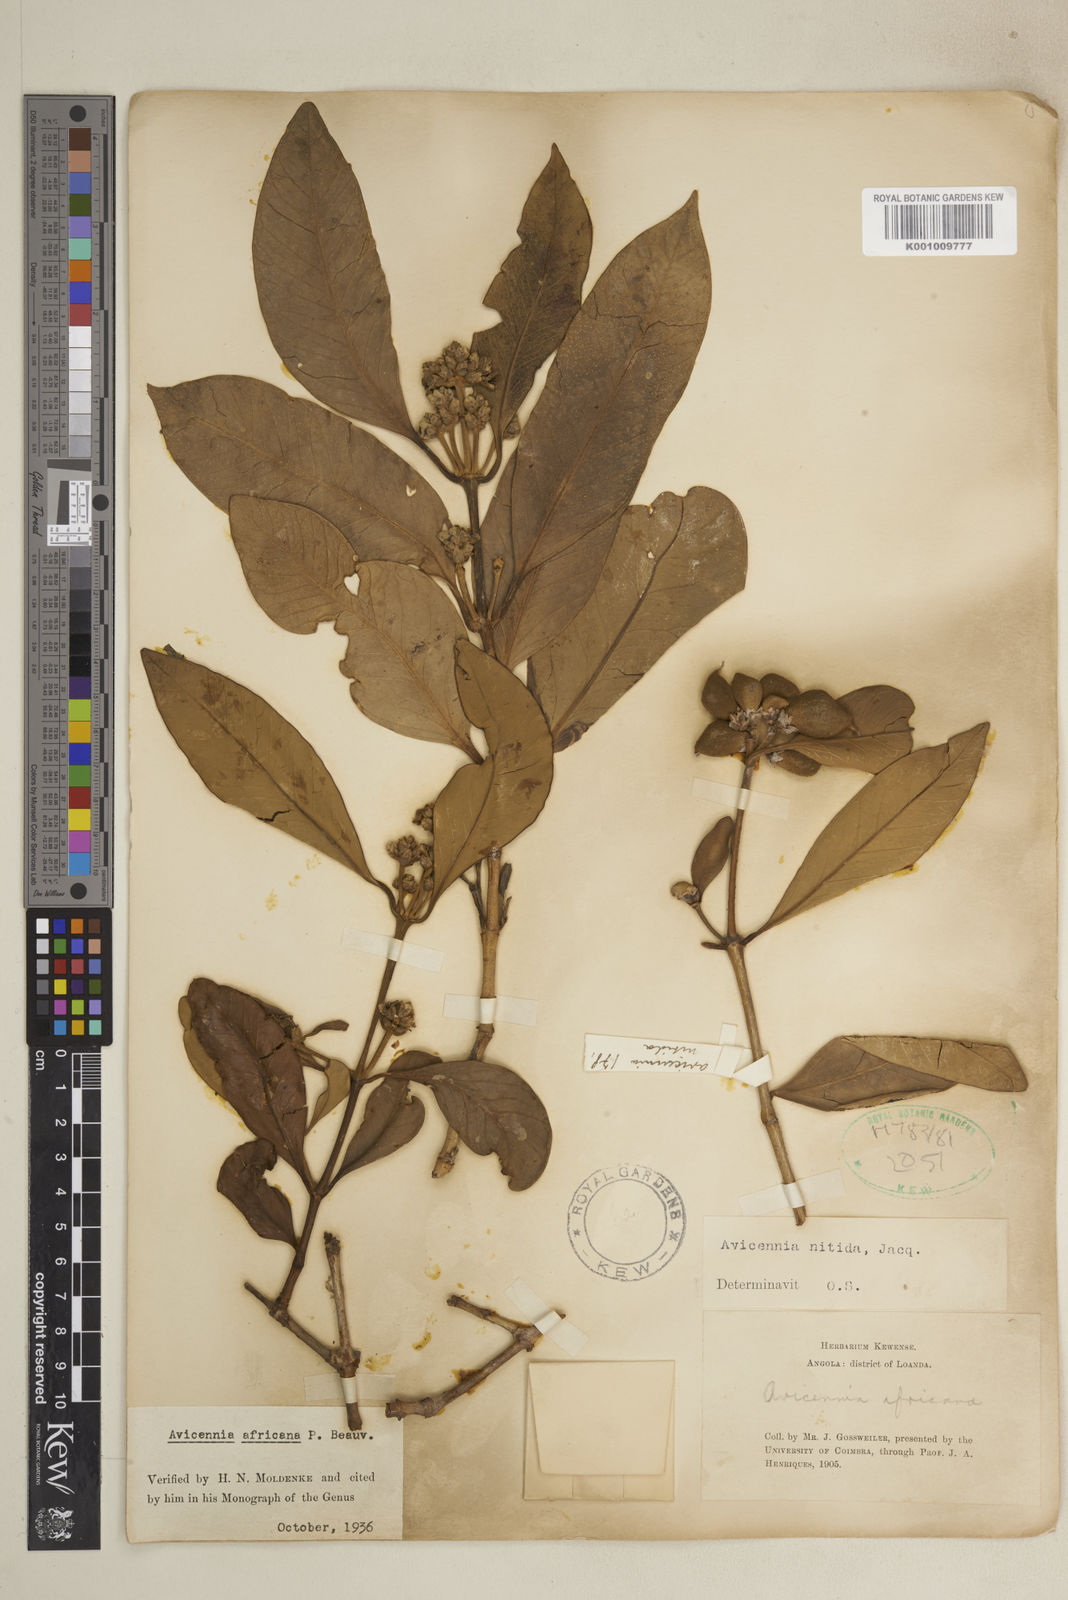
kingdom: Plantae
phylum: Tracheophyta
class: Magnoliopsida
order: Lamiales
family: Acanthaceae
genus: Avicennia
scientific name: Avicennia germinans
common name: Black mangrove
